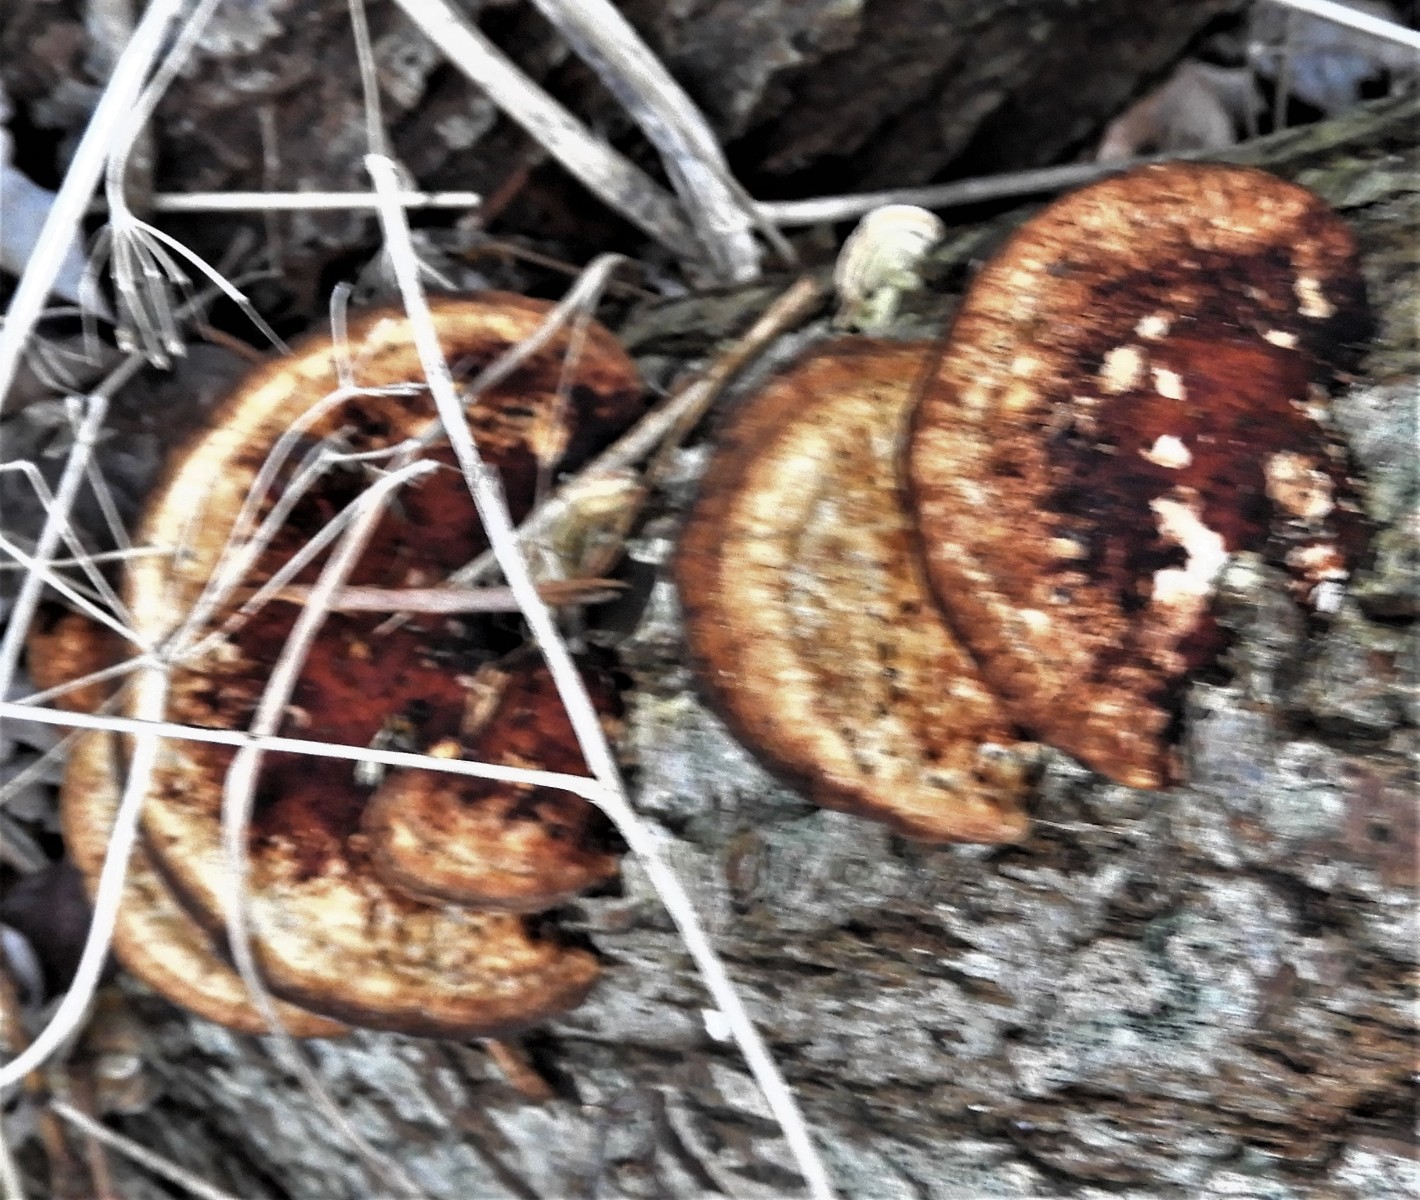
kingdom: Fungi
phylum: Basidiomycota
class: Agaricomycetes
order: Polyporales
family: Polyporaceae
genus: Daedaleopsis
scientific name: Daedaleopsis confragosa
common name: rødmende læderporesvamp
